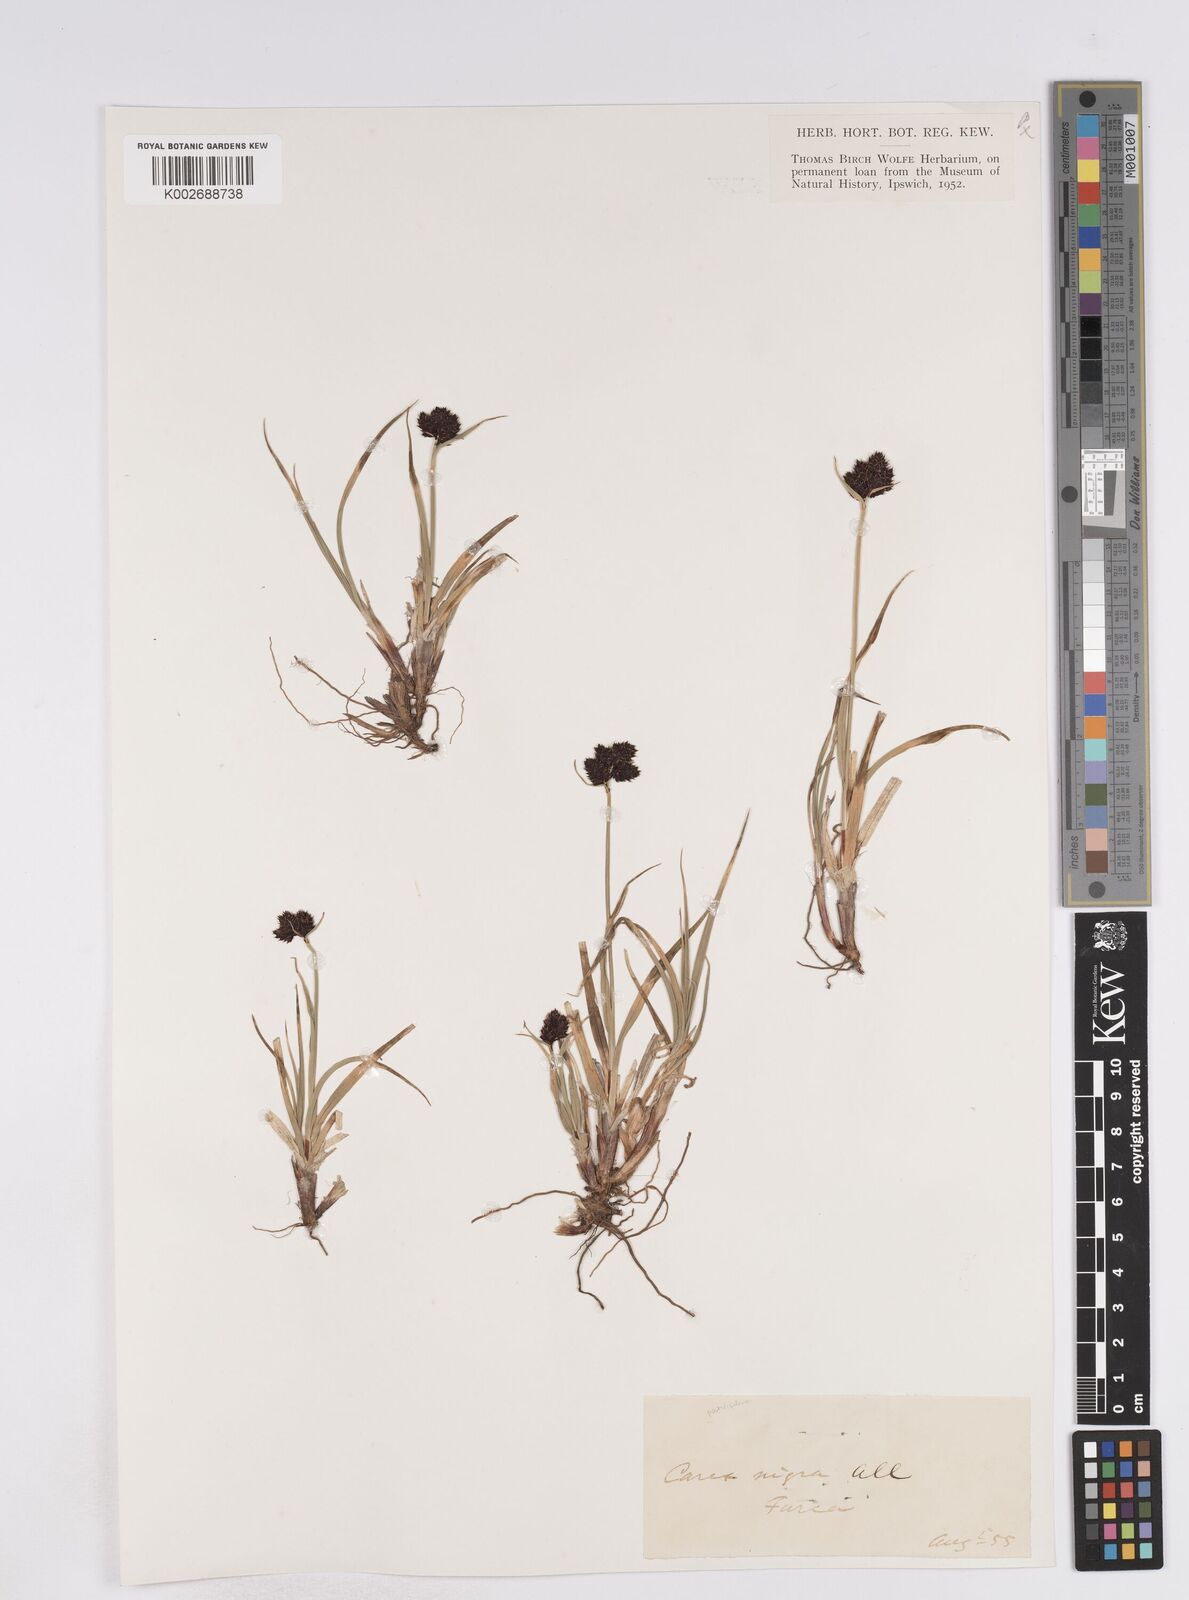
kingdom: Plantae
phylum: Tracheophyta
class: Liliopsida
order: Poales
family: Cyperaceae
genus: Carex
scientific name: Carex parviflora
